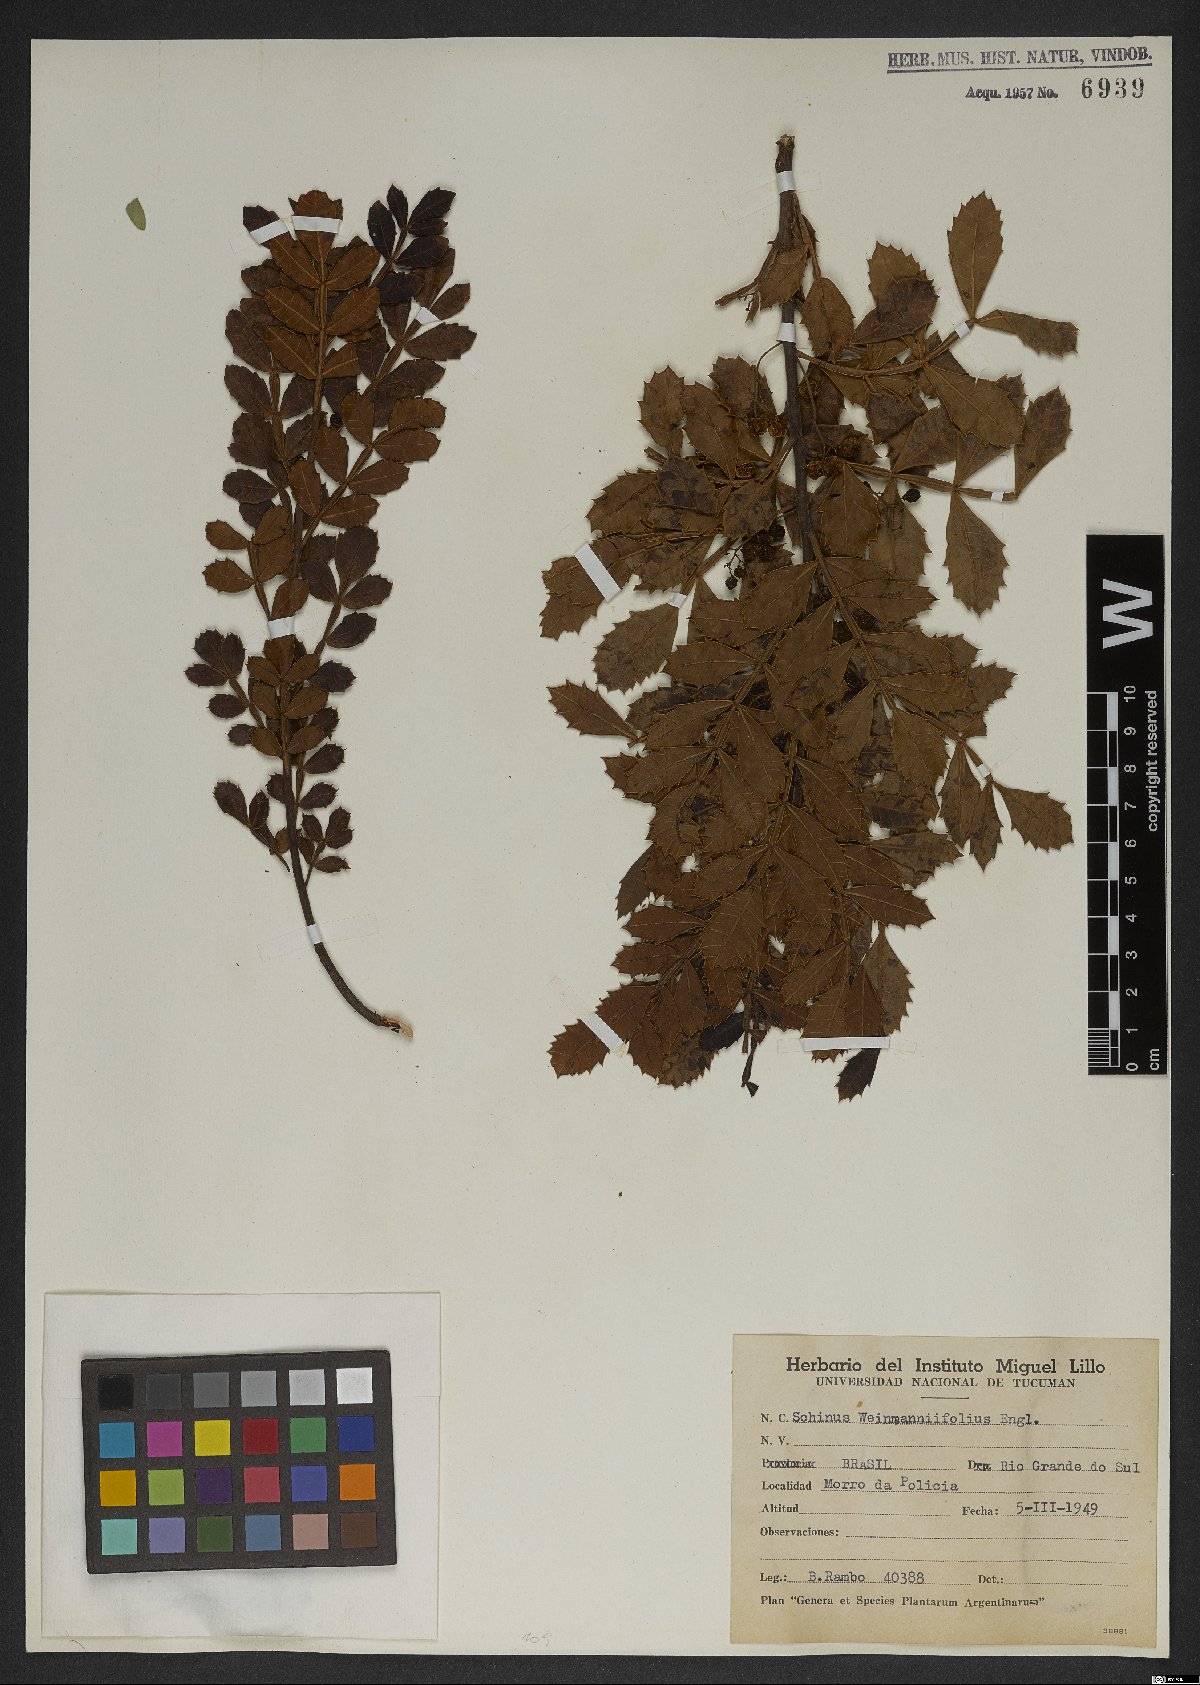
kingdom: Plantae
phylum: Tracheophyta
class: Magnoliopsida
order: Sapindales
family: Anacardiaceae
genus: Schinus
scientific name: Schinus weinmanniifolia
